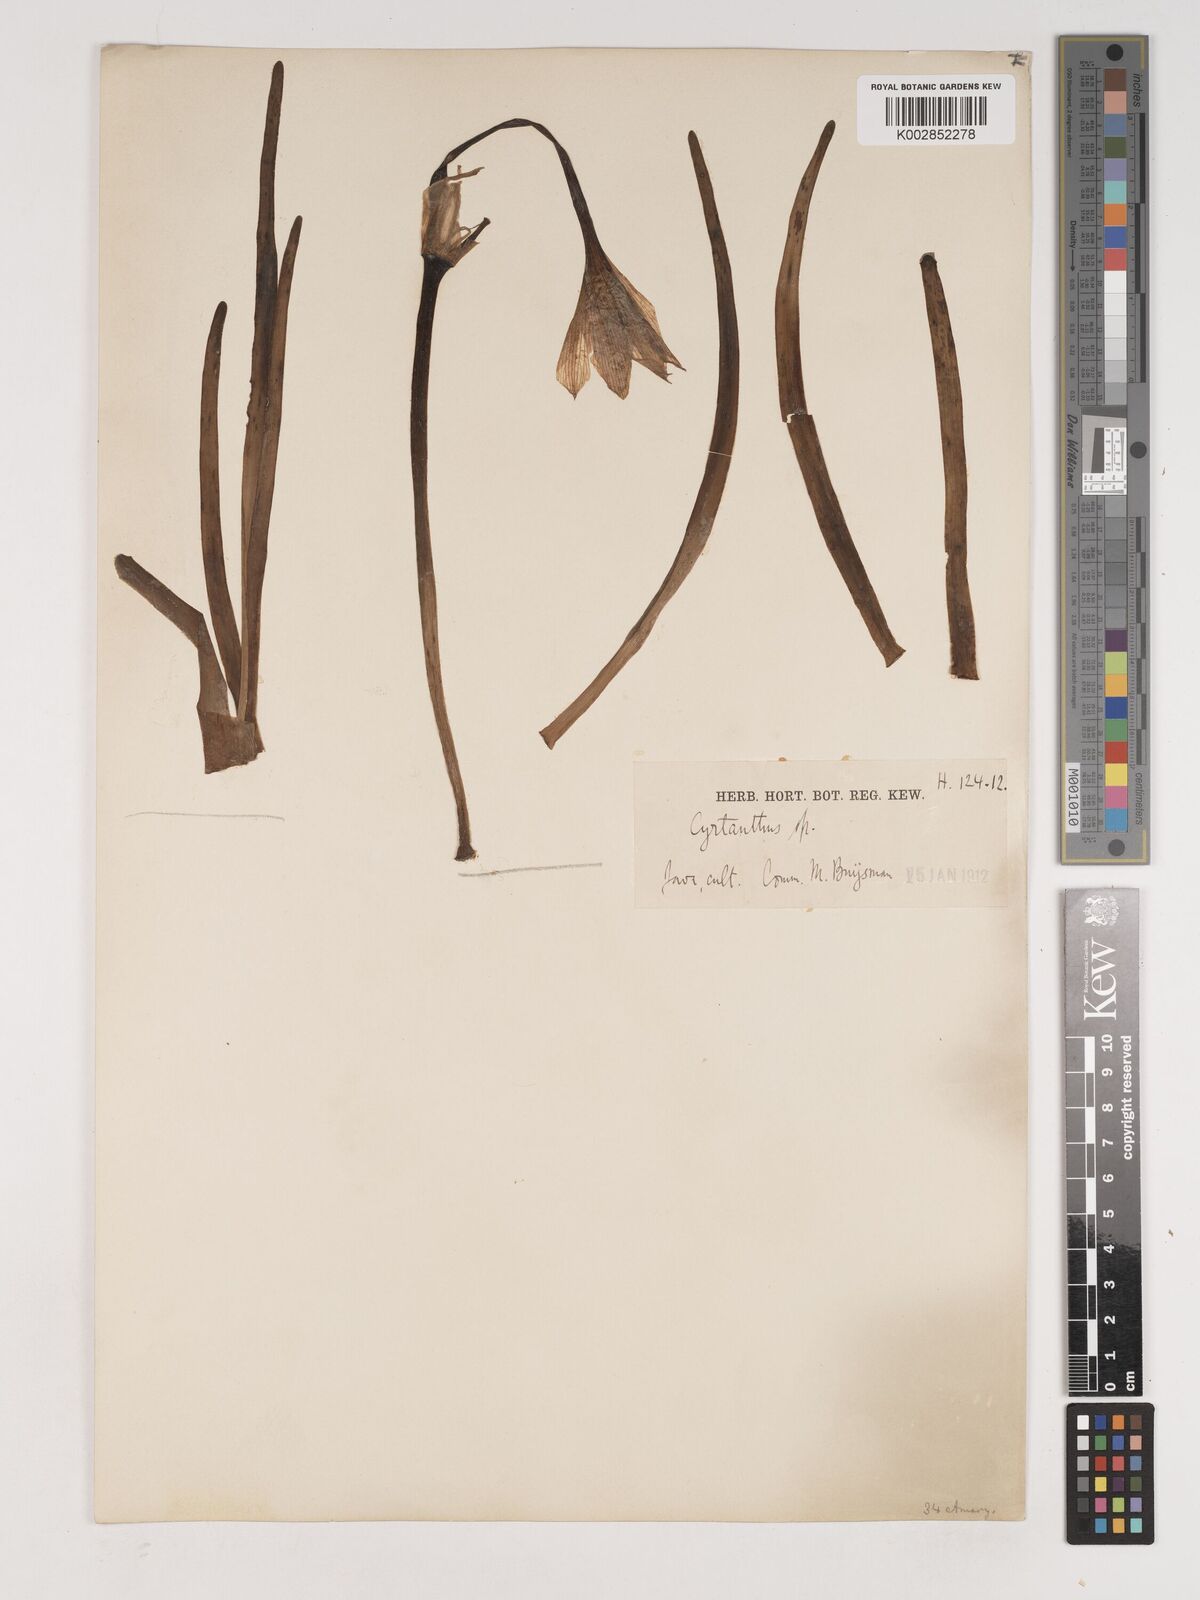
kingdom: Plantae
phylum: Tracheophyta
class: Liliopsida
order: Asparagales
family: Amaryllidaceae
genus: Crinum
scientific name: Crinum
